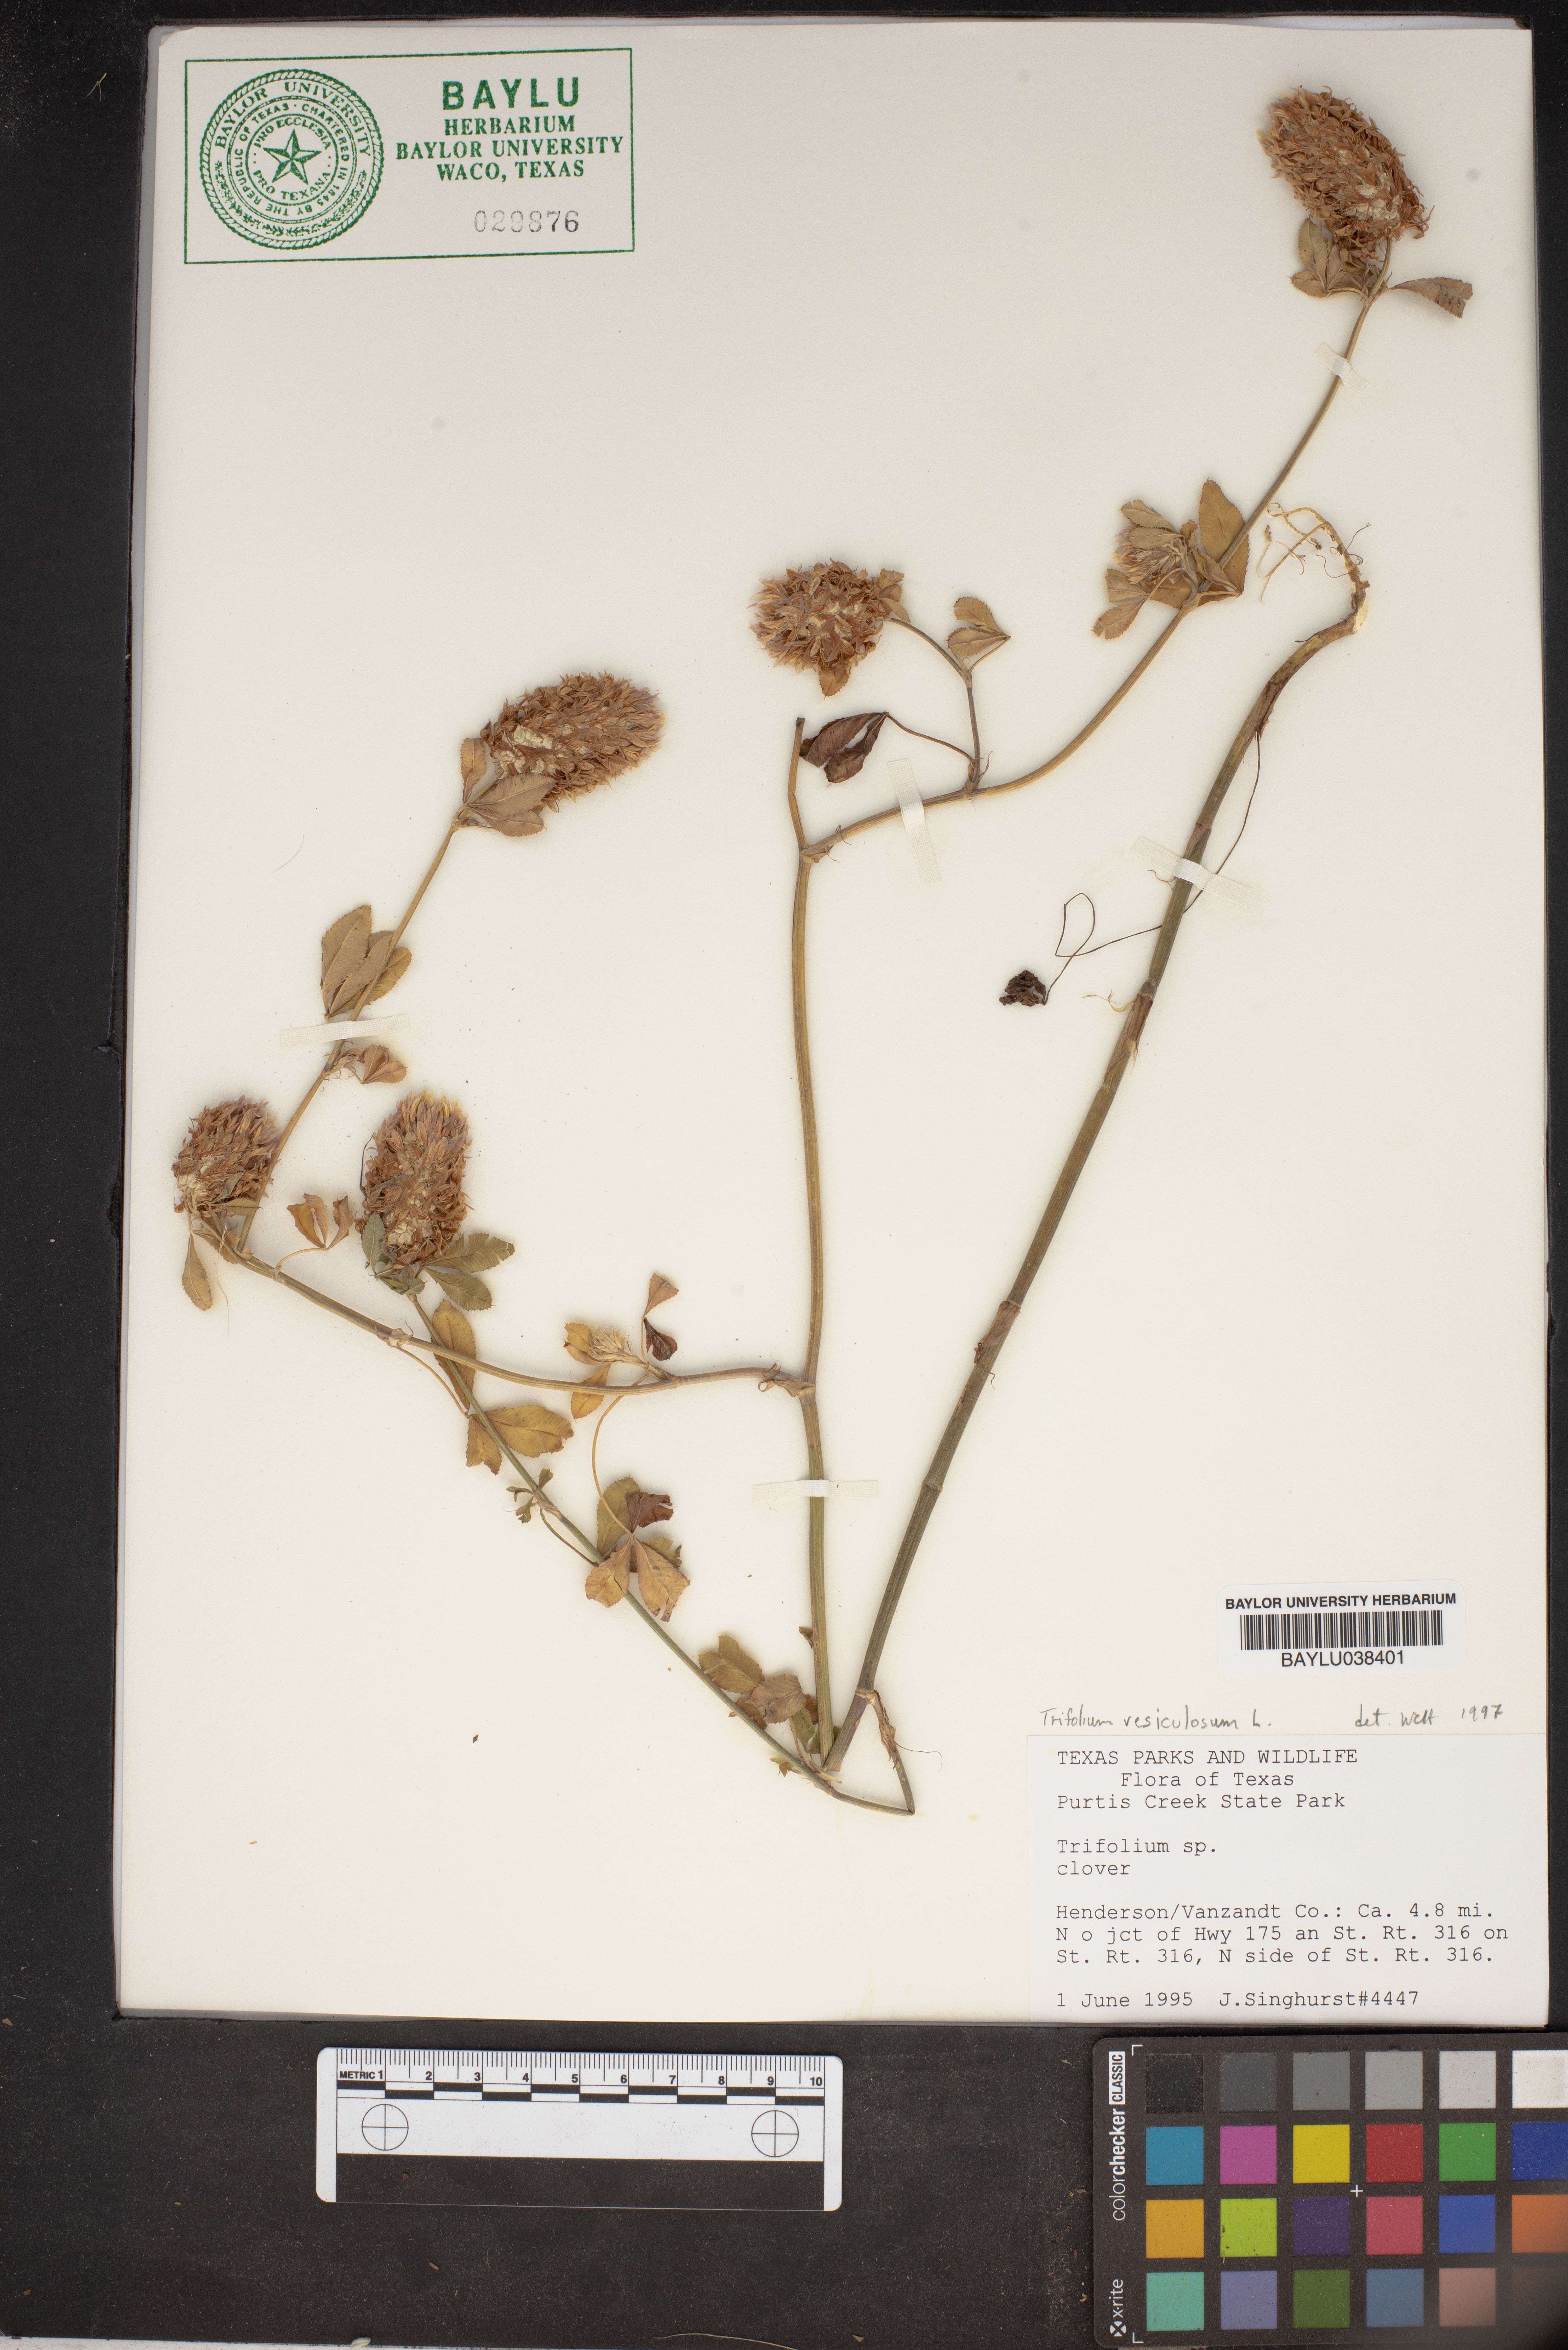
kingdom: Plantae
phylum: Tracheophyta
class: Magnoliopsida
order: Fabales
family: Fabaceae
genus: Trifolium
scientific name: Trifolium vesiculosum
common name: Arrowleaf clover
